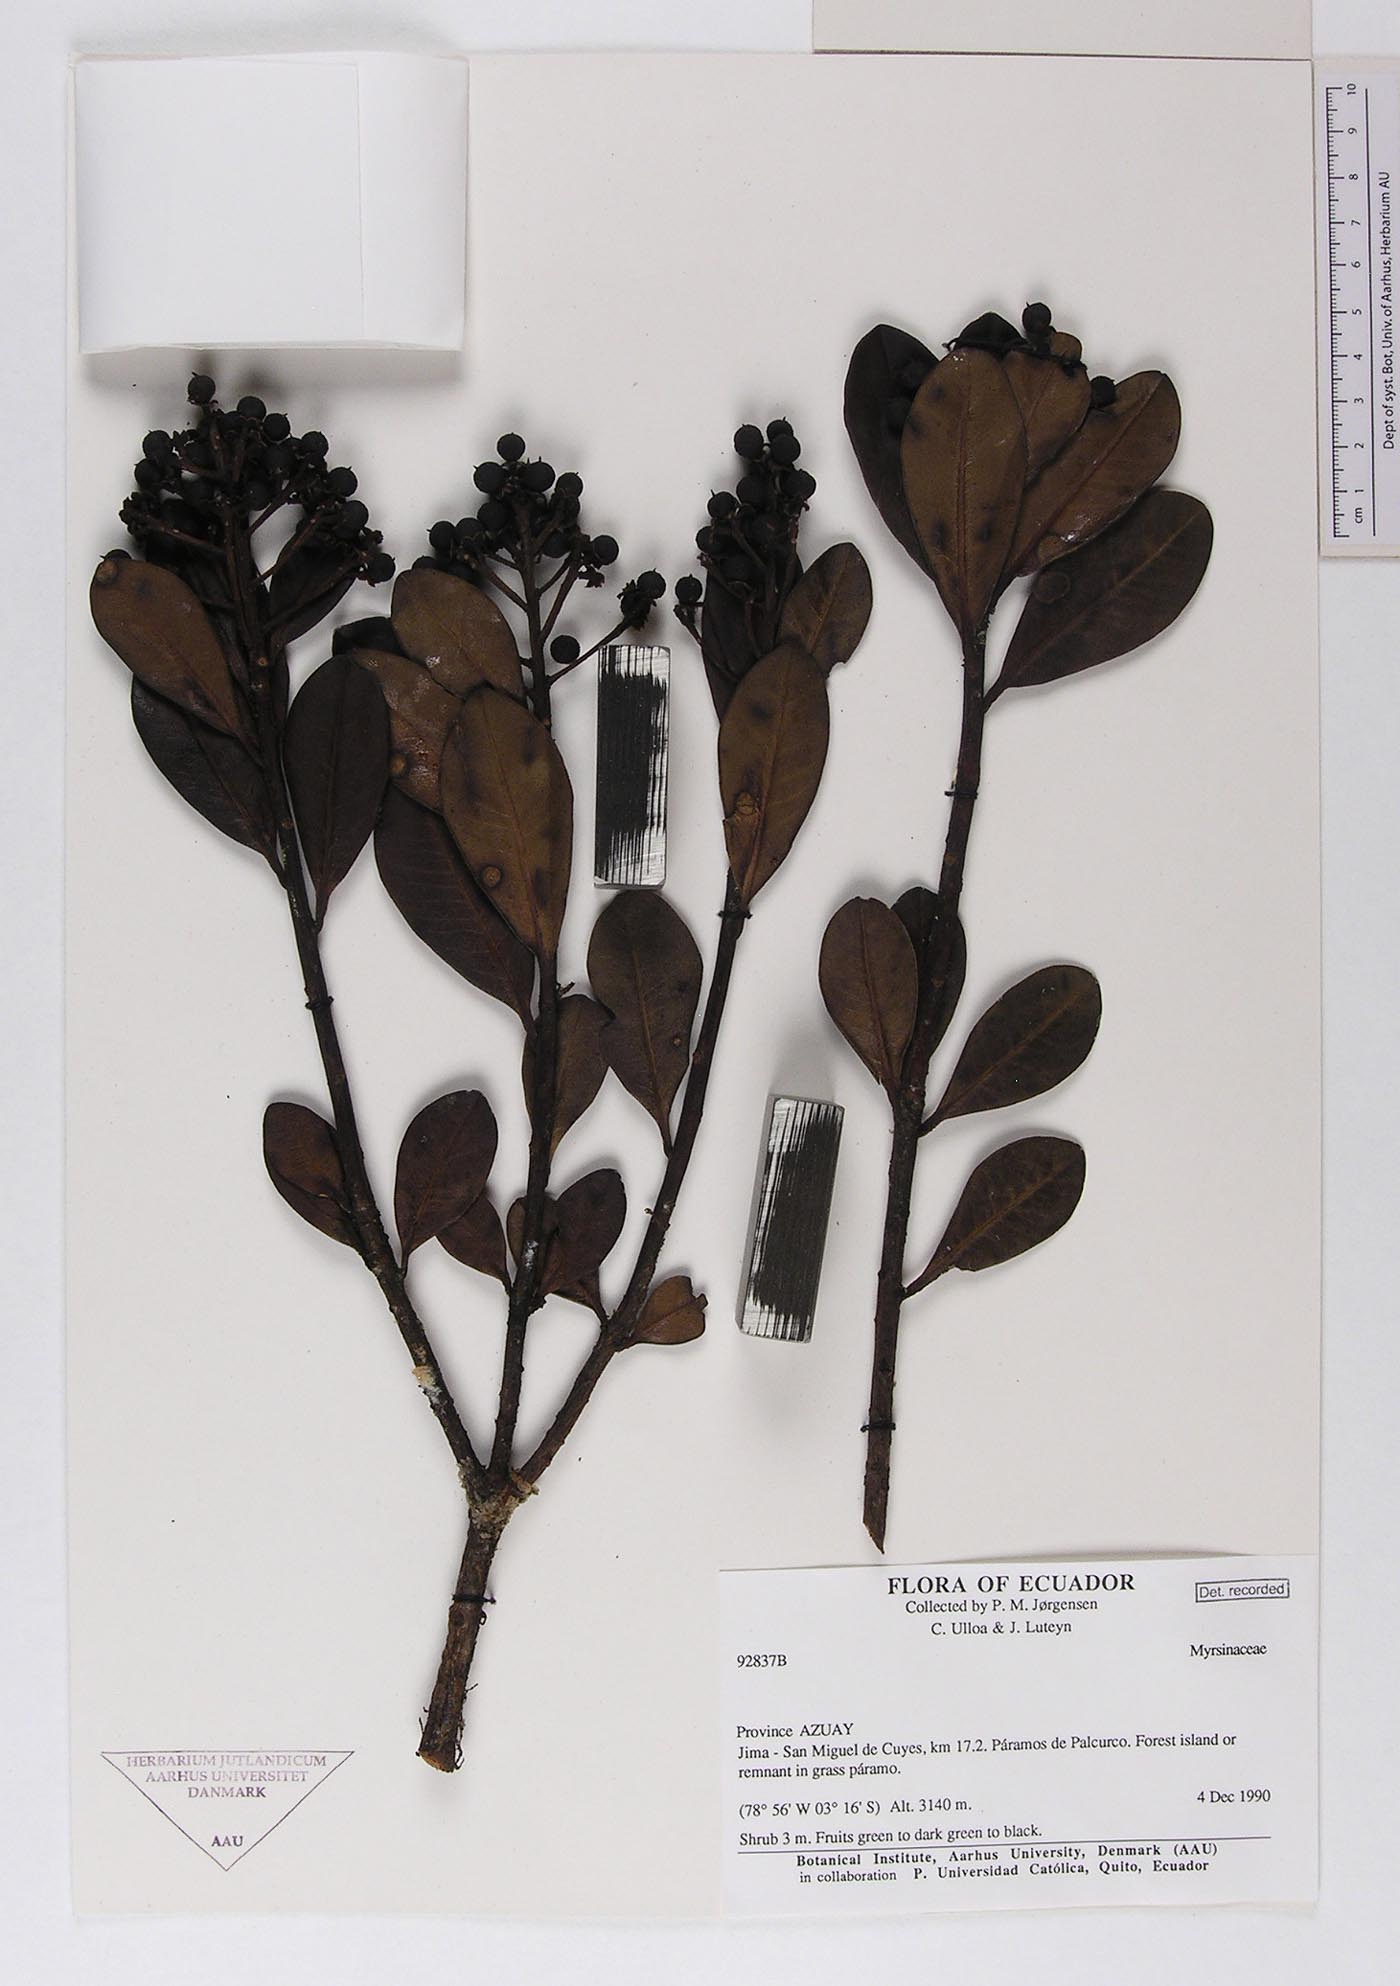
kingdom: Plantae
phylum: Tracheophyta
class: Magnoliopsida
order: Ericales
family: Primulaceae
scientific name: Primulaceae
